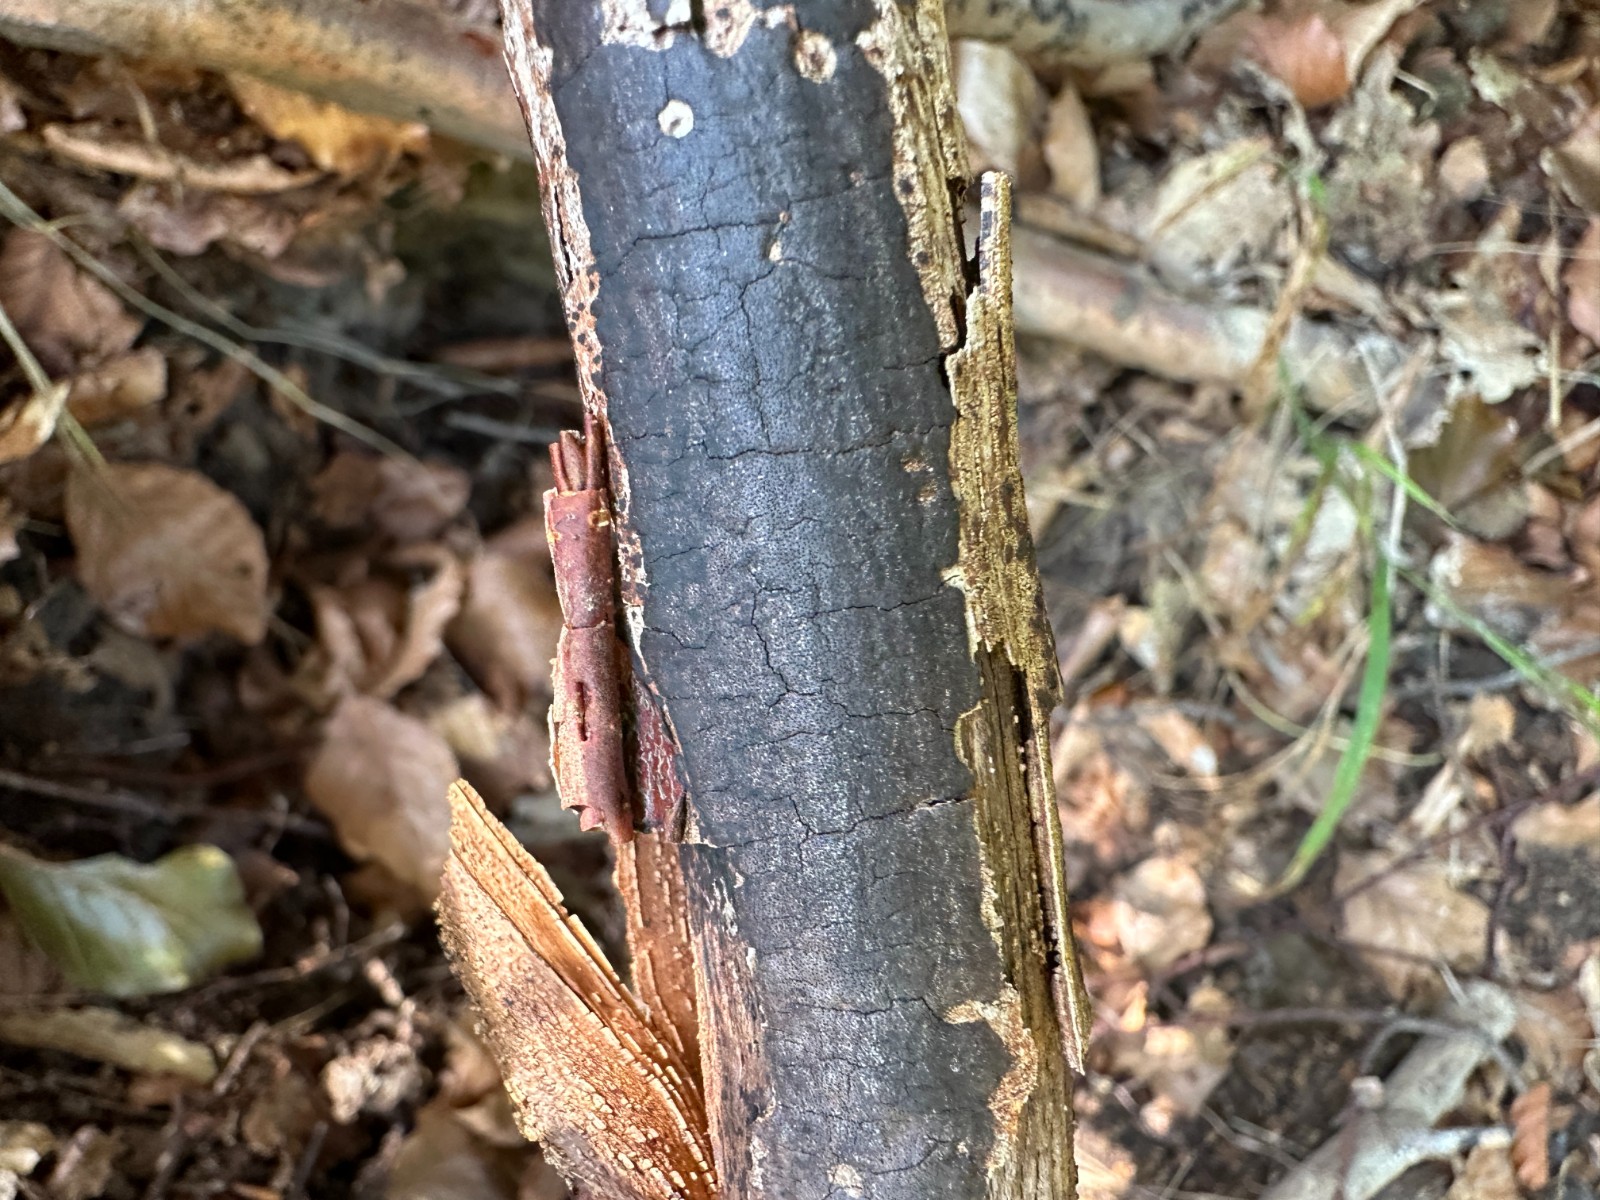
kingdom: Fungi
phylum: Ascomycota
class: Sordariomycetes
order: Xylariales
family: Diatrypaceae
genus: Diatrype
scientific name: Diatrype decorticata
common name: barksprænger-kulskorpe
